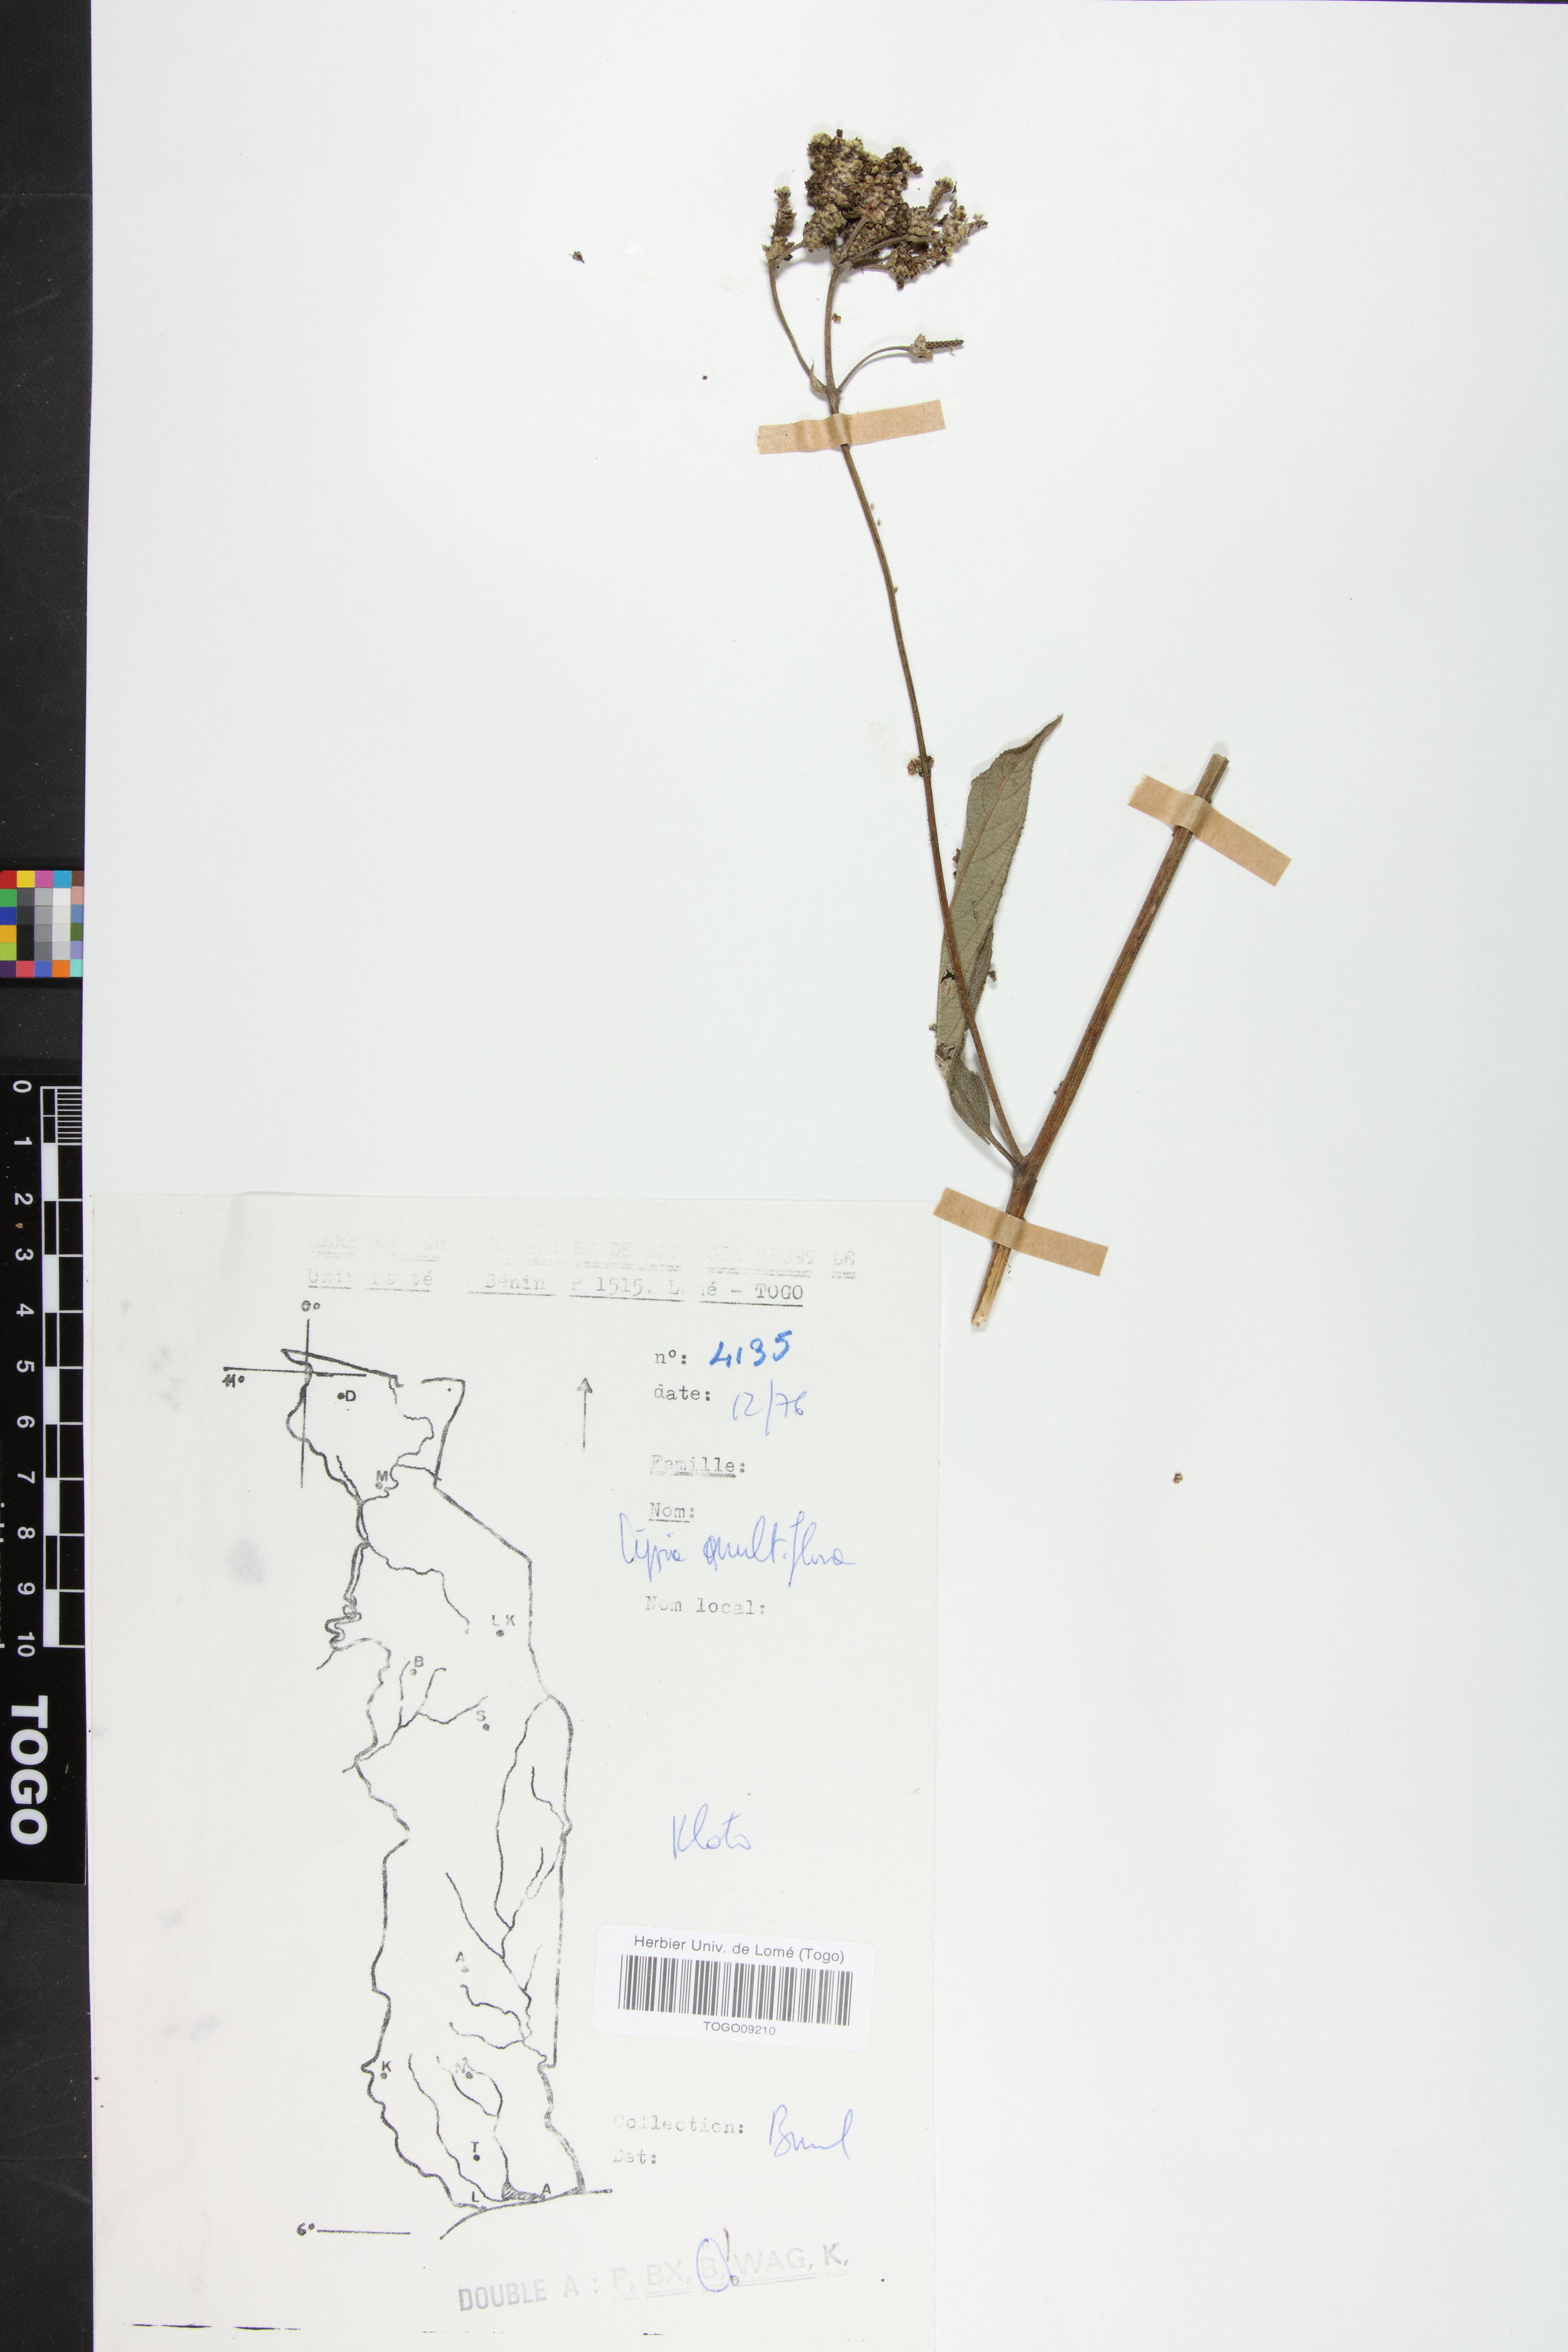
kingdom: Plantae
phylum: Tracheophyta
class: Magnoliopsida
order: Lamiales
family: Verbenaceae
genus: Lippia
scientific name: Lippia multiflora
